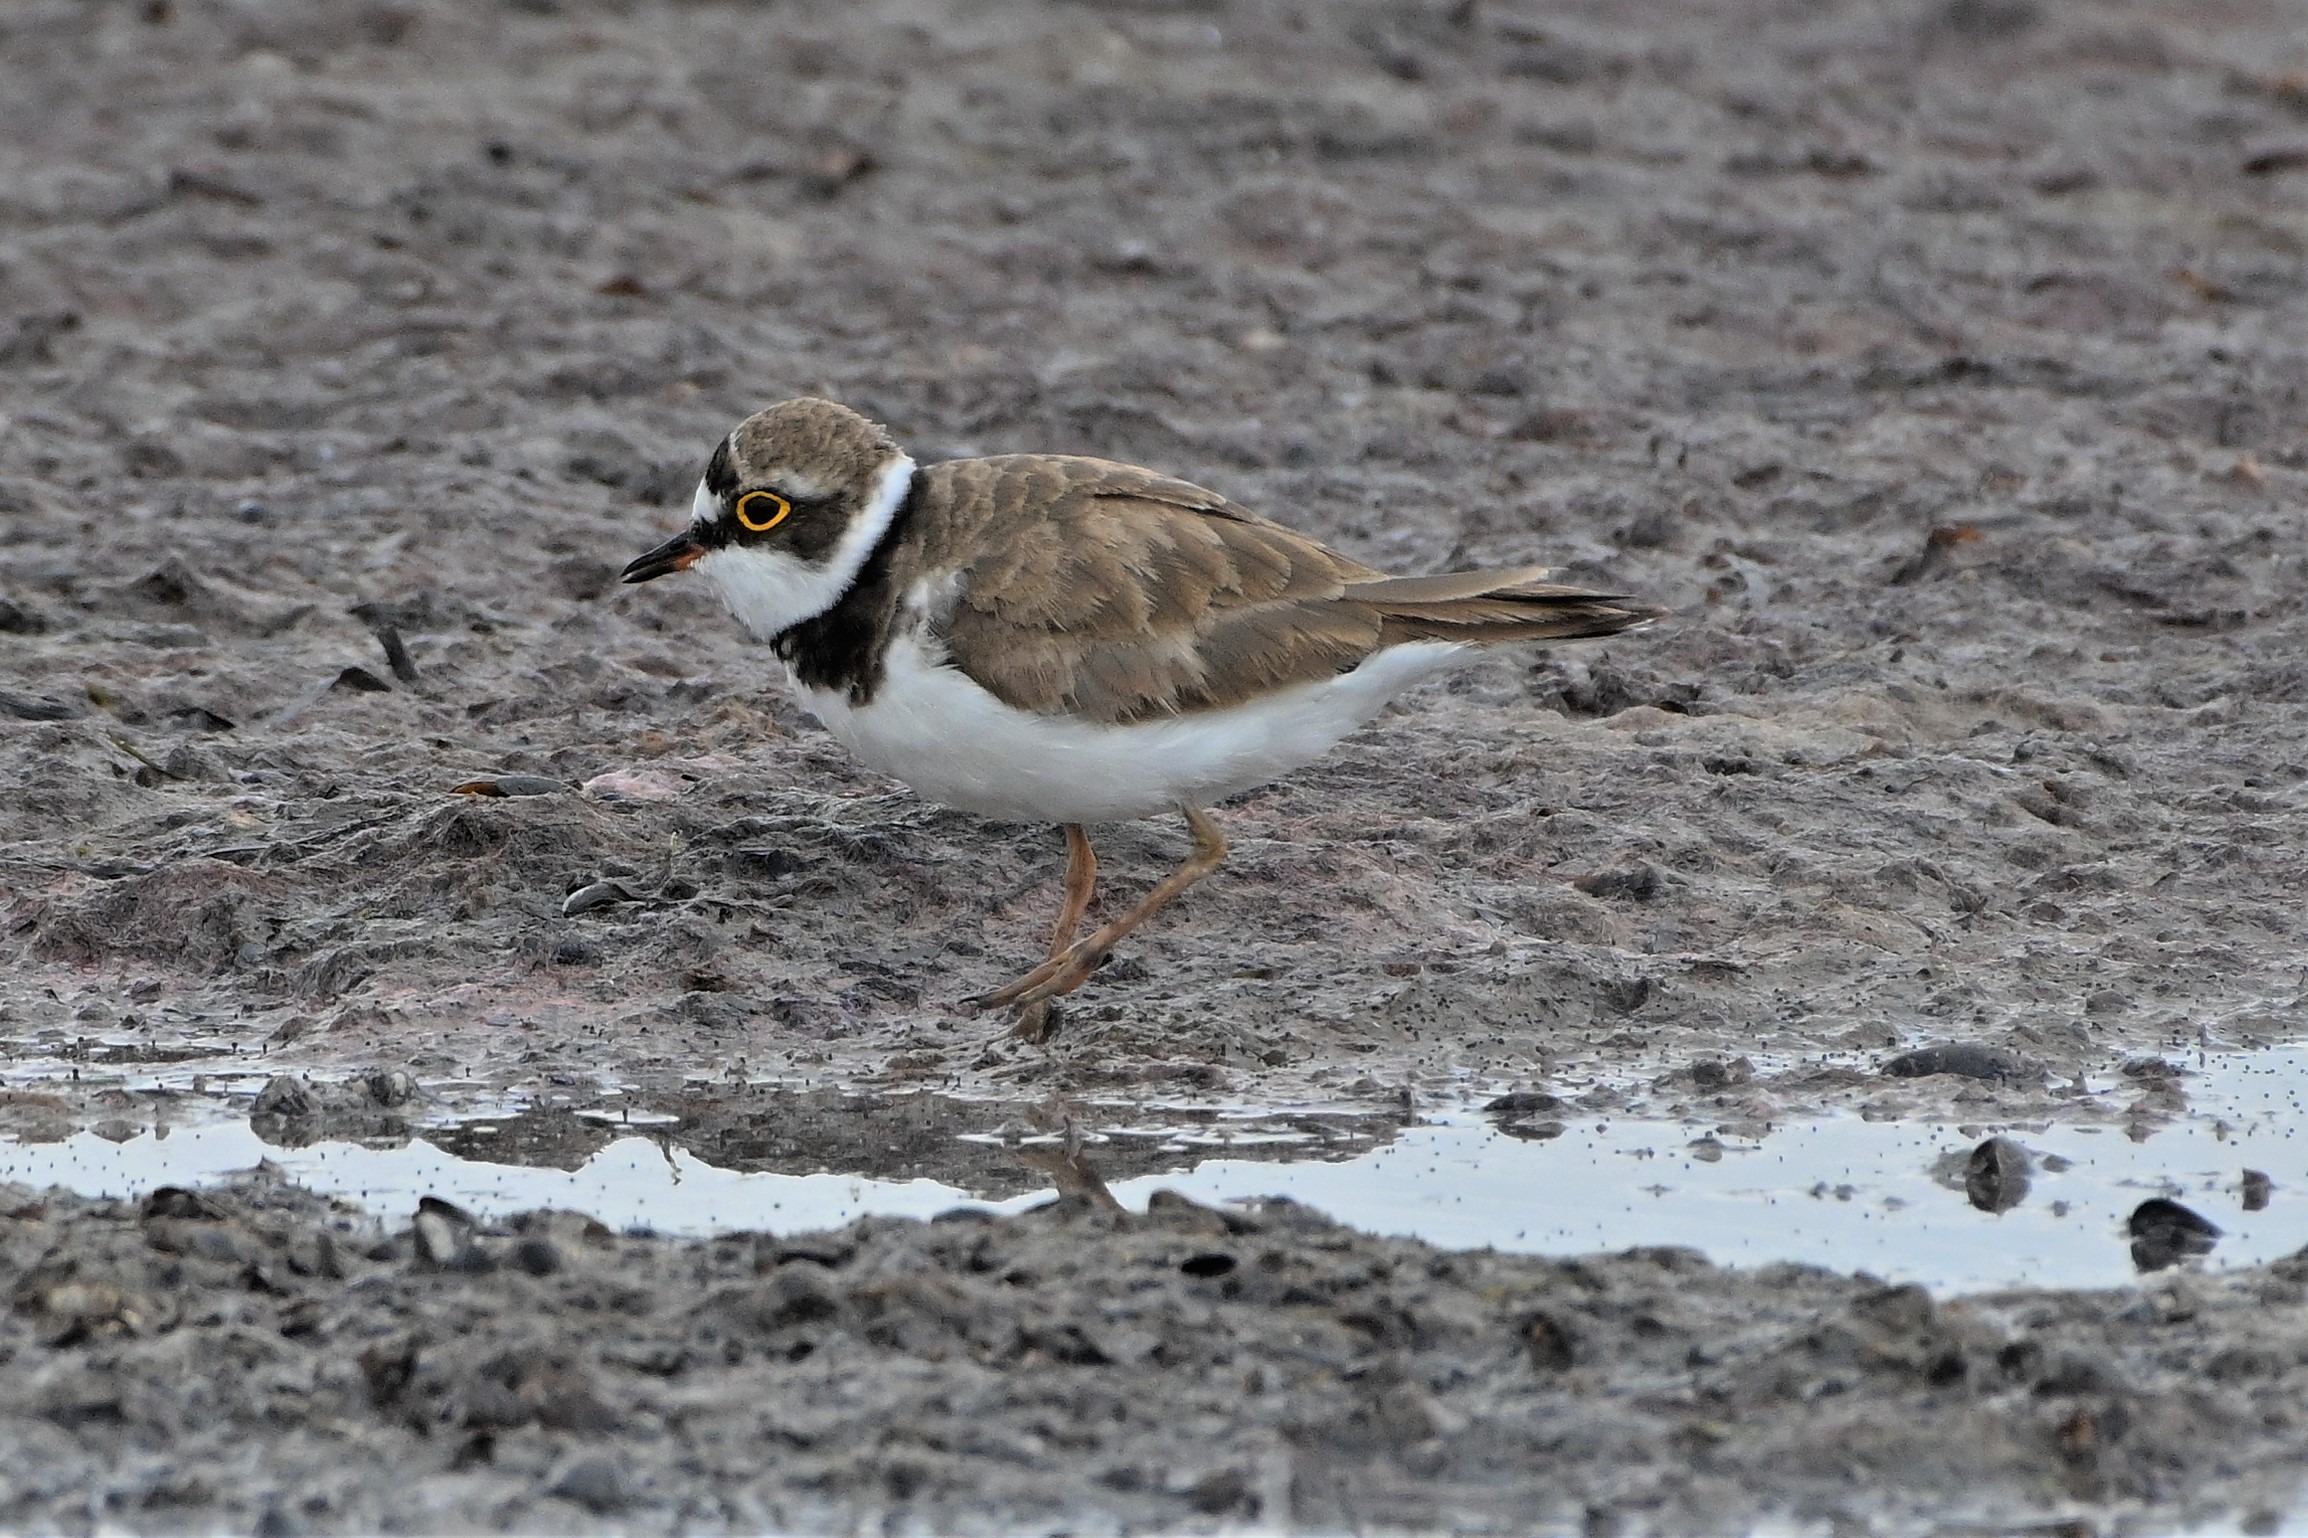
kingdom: Animalia
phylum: Chordata
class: Aves
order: Charadriiformes
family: Charadriidae
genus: Charadrius
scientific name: Charadrius dubius
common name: Lille præstekrave
